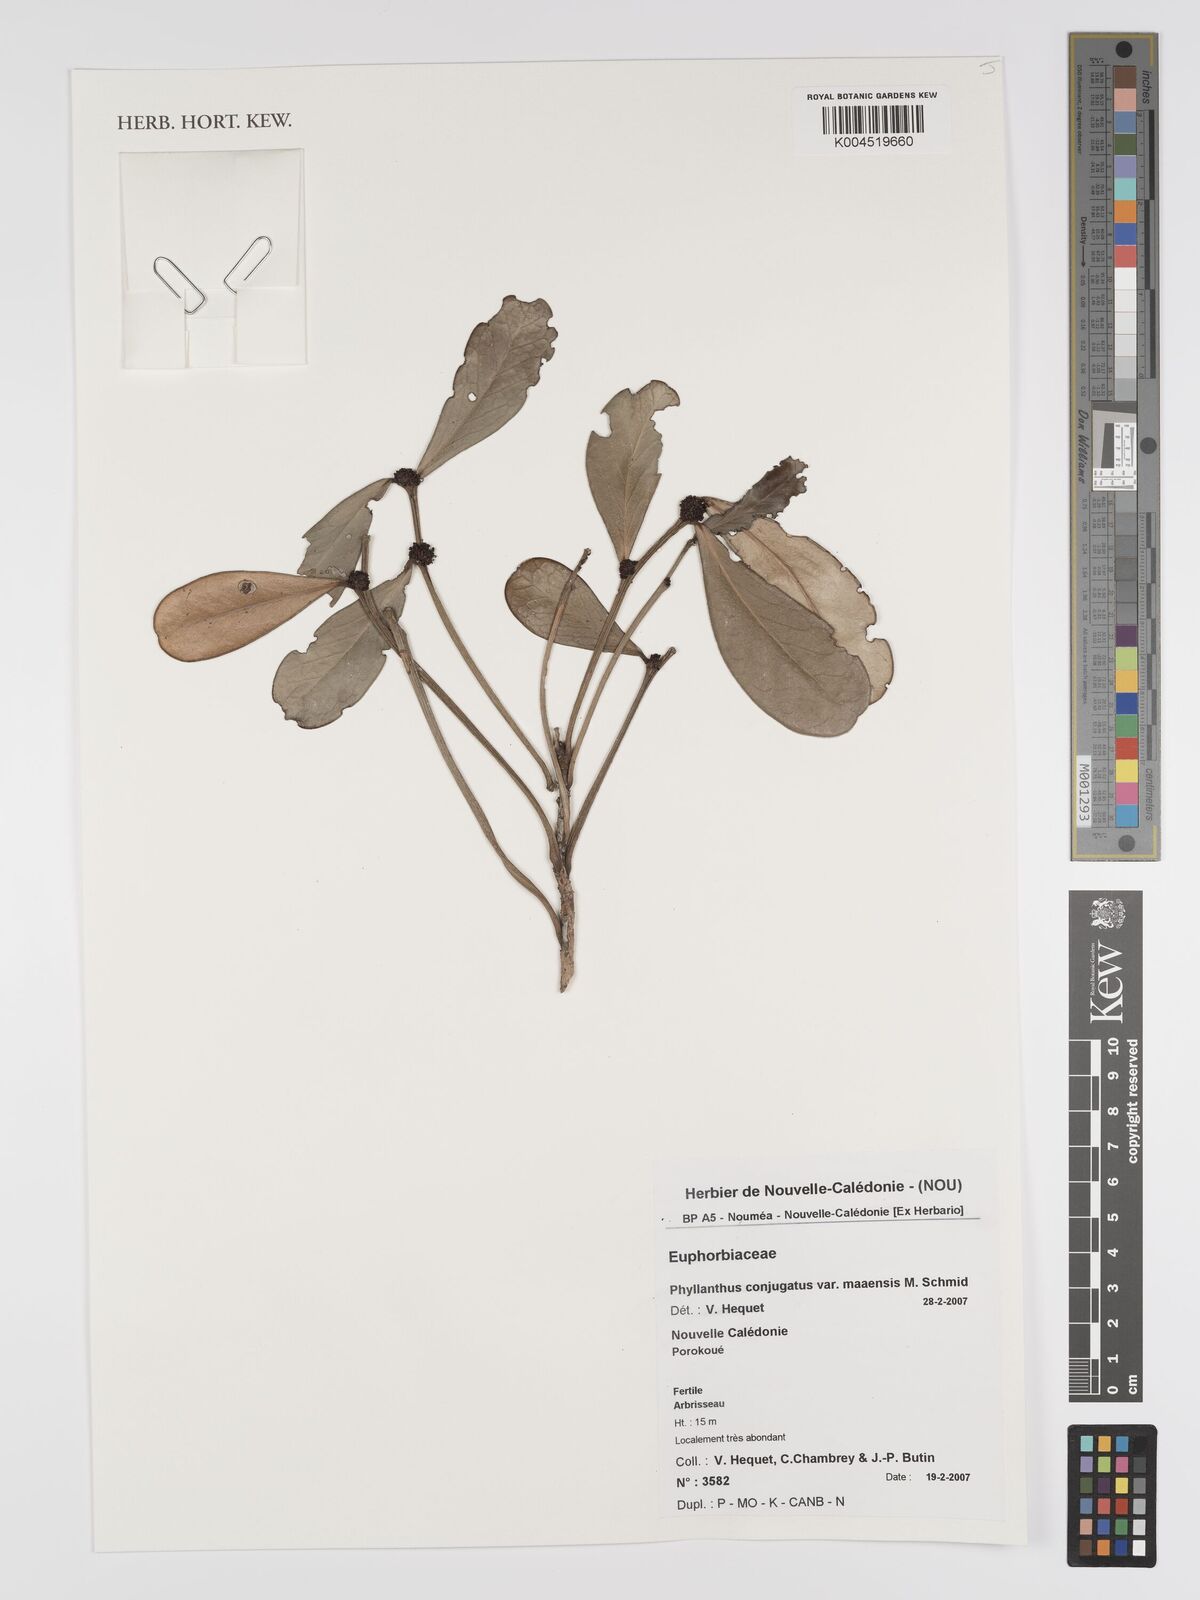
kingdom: Plantae
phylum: Tracheophyta
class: Magnoliopsida
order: Malpighiales
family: Phyllanthaceae
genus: Phyllanthus
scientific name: Phyllanthus conjugatus
